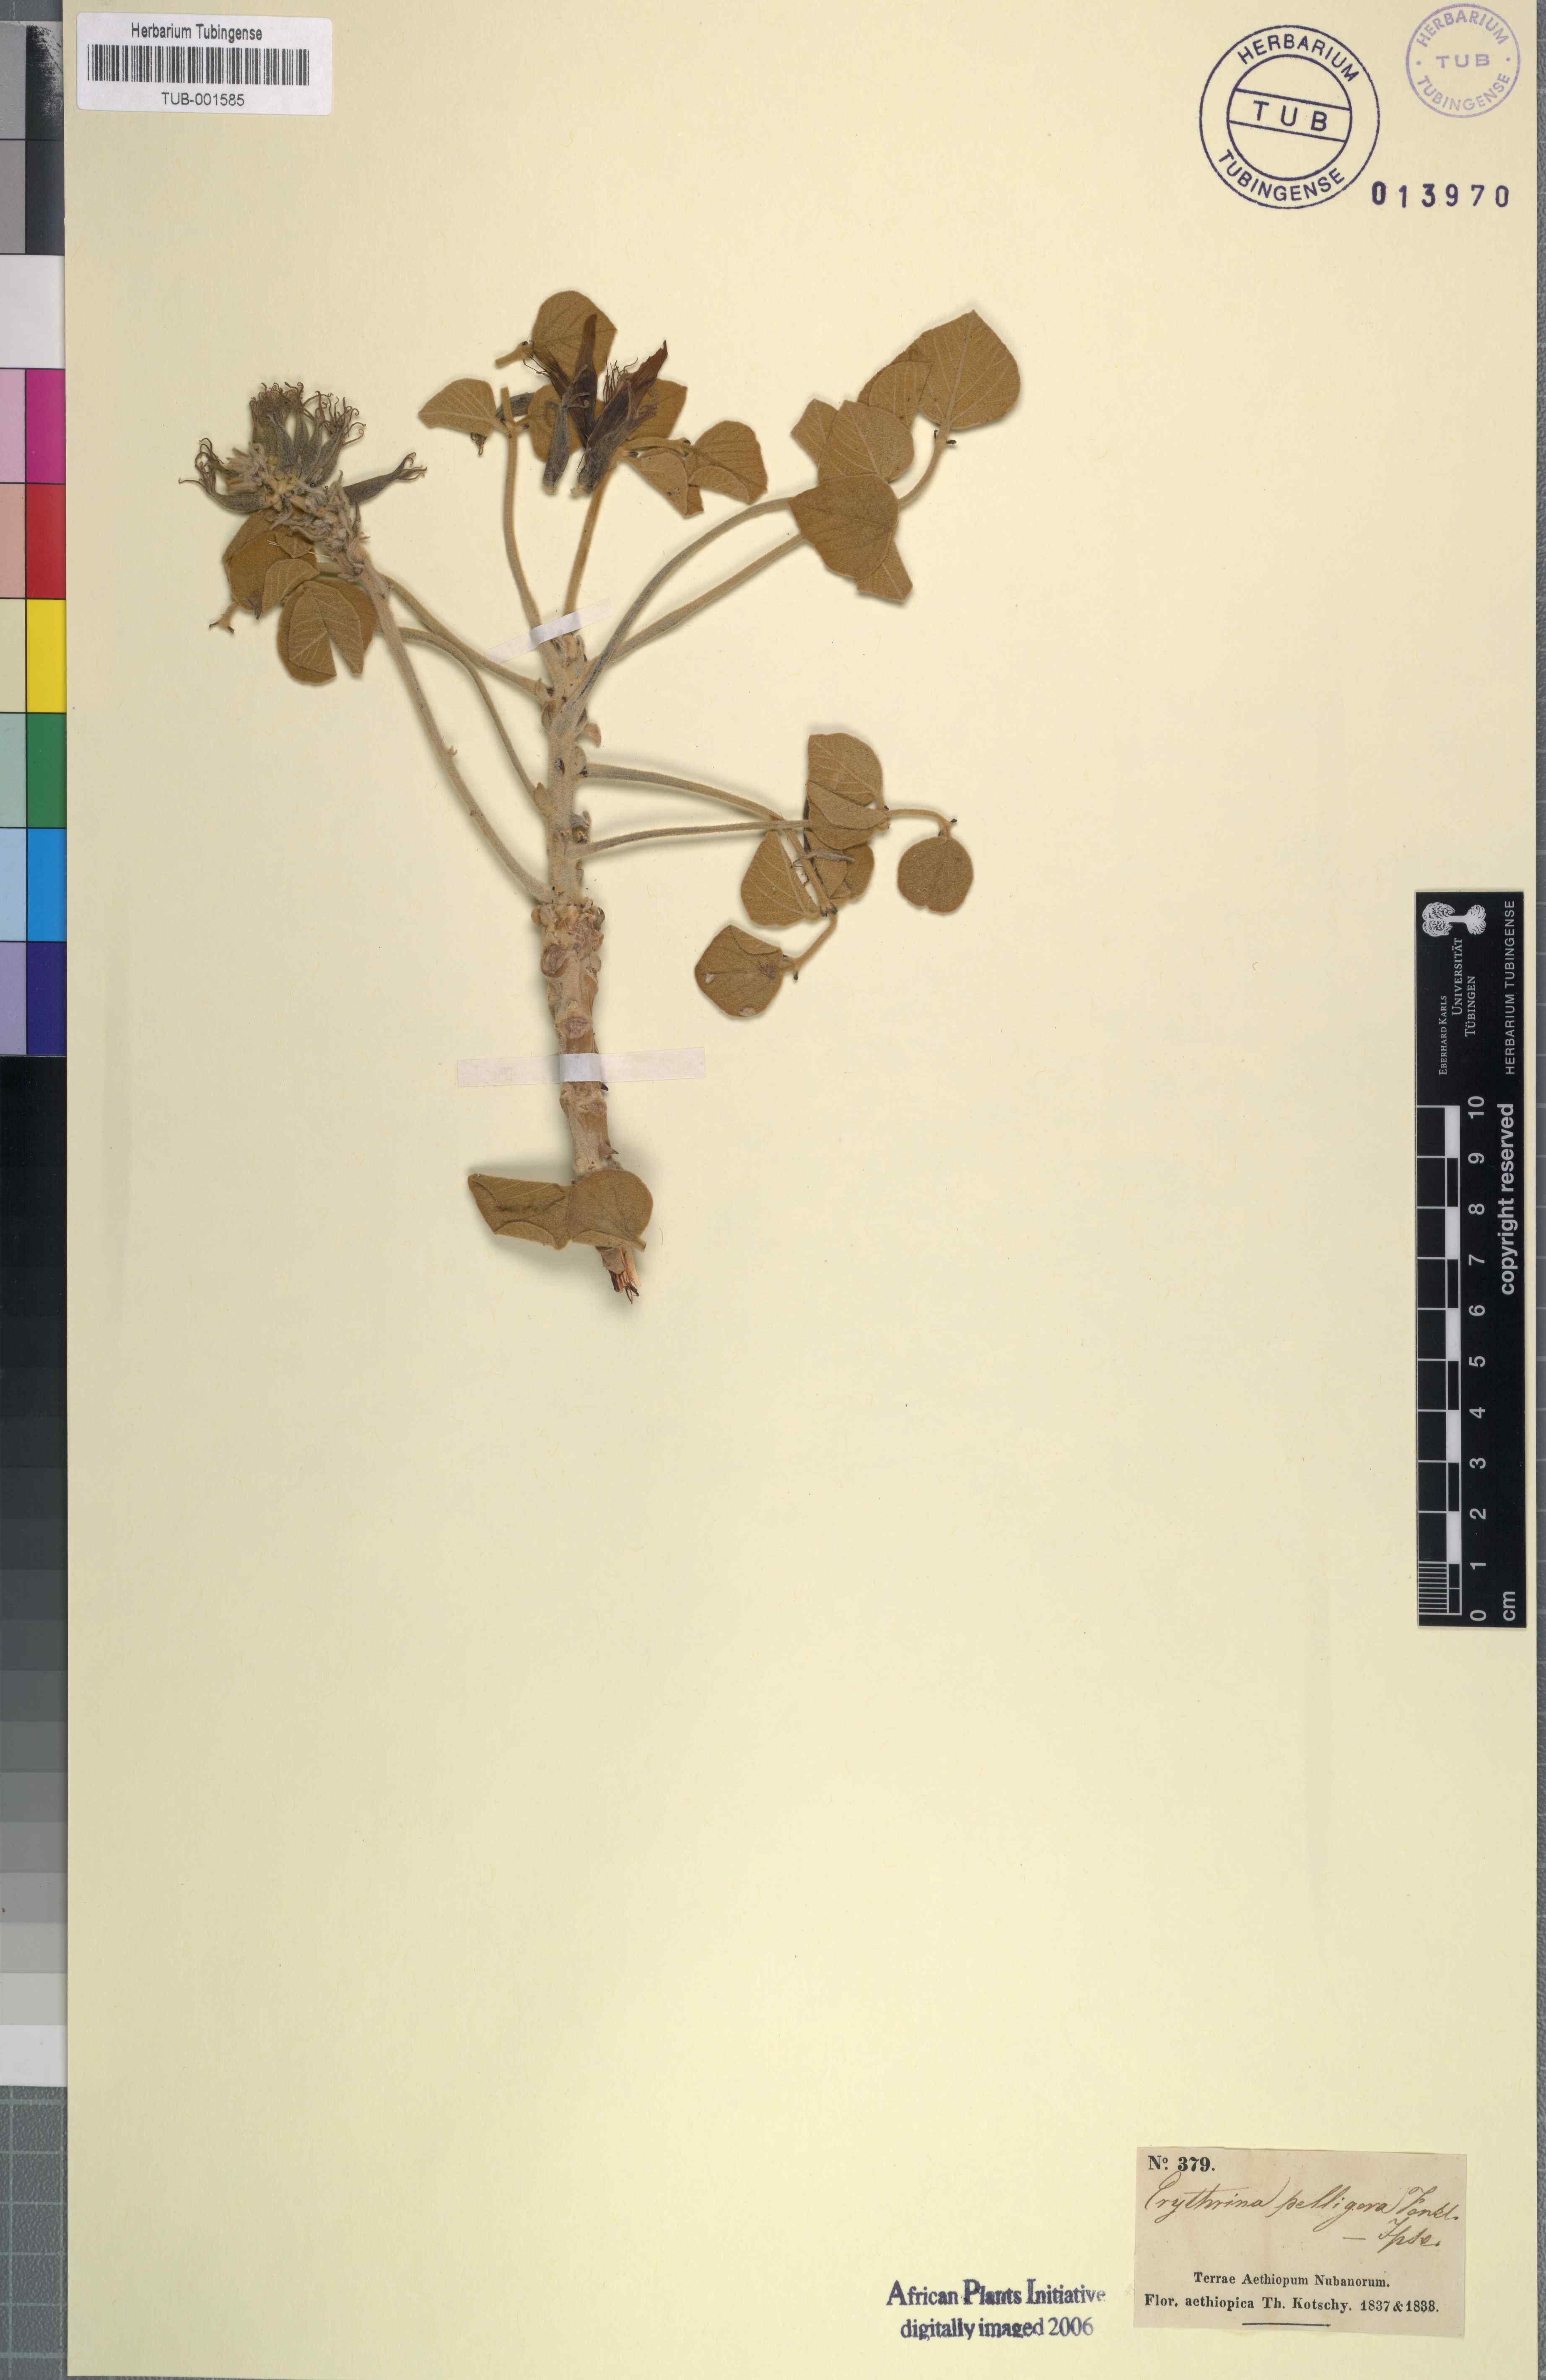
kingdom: Plantae
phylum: Tracheophyta
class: Magnoliopsida
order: Fabales
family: Fabaceae
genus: Erythrina
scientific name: Erythrina abyssinica
